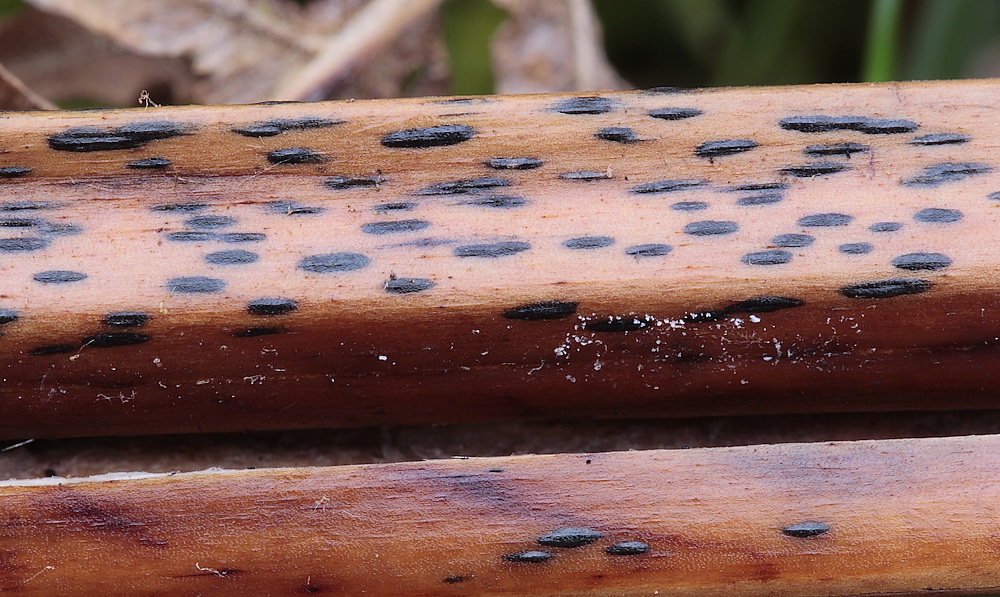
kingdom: Fungi
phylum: Ascomycota
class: Dothideomycetes
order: Pleosporales
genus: Rhopographus
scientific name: Rhopographus filicinus
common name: Bracken map
